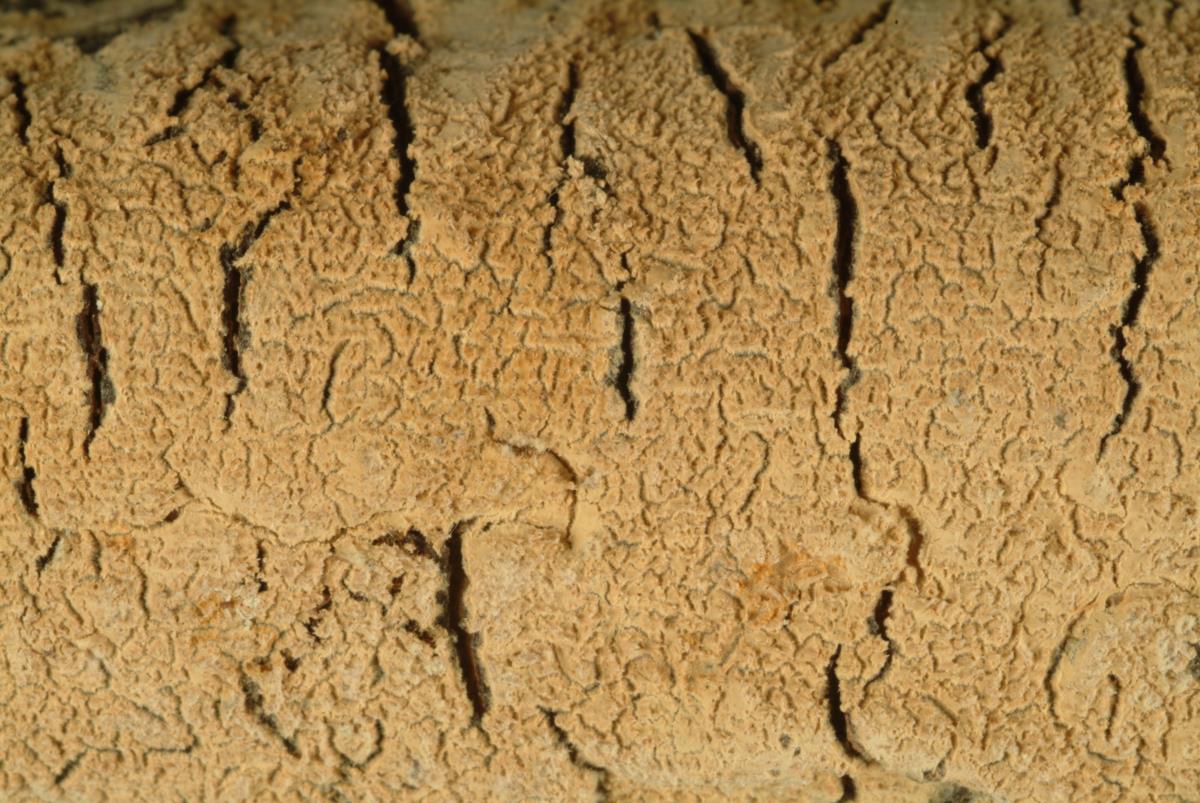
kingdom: Fungi
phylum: Basidiomycota
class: Agaricomycetes
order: Polyporales
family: Meruliaceae
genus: Gyrophanopsis
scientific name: Gyrophanopsis zealandica
